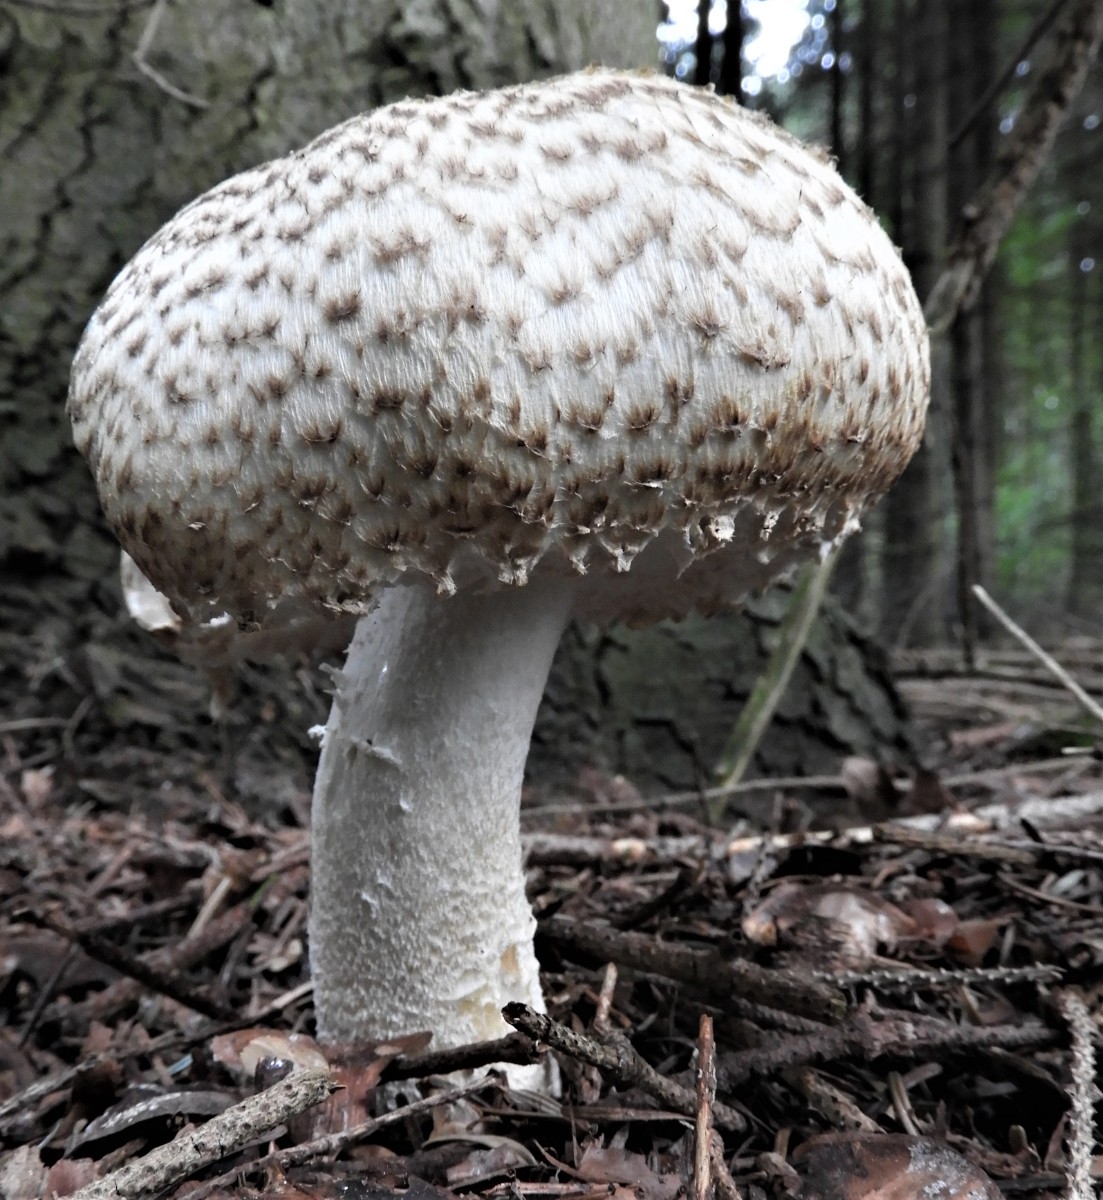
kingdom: Fungi
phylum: Basidiomycota
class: Agaricomycetes
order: Agaricales
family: Agaricaceae
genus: Agaricus
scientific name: Agaricus augustus
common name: prægtig champignon
